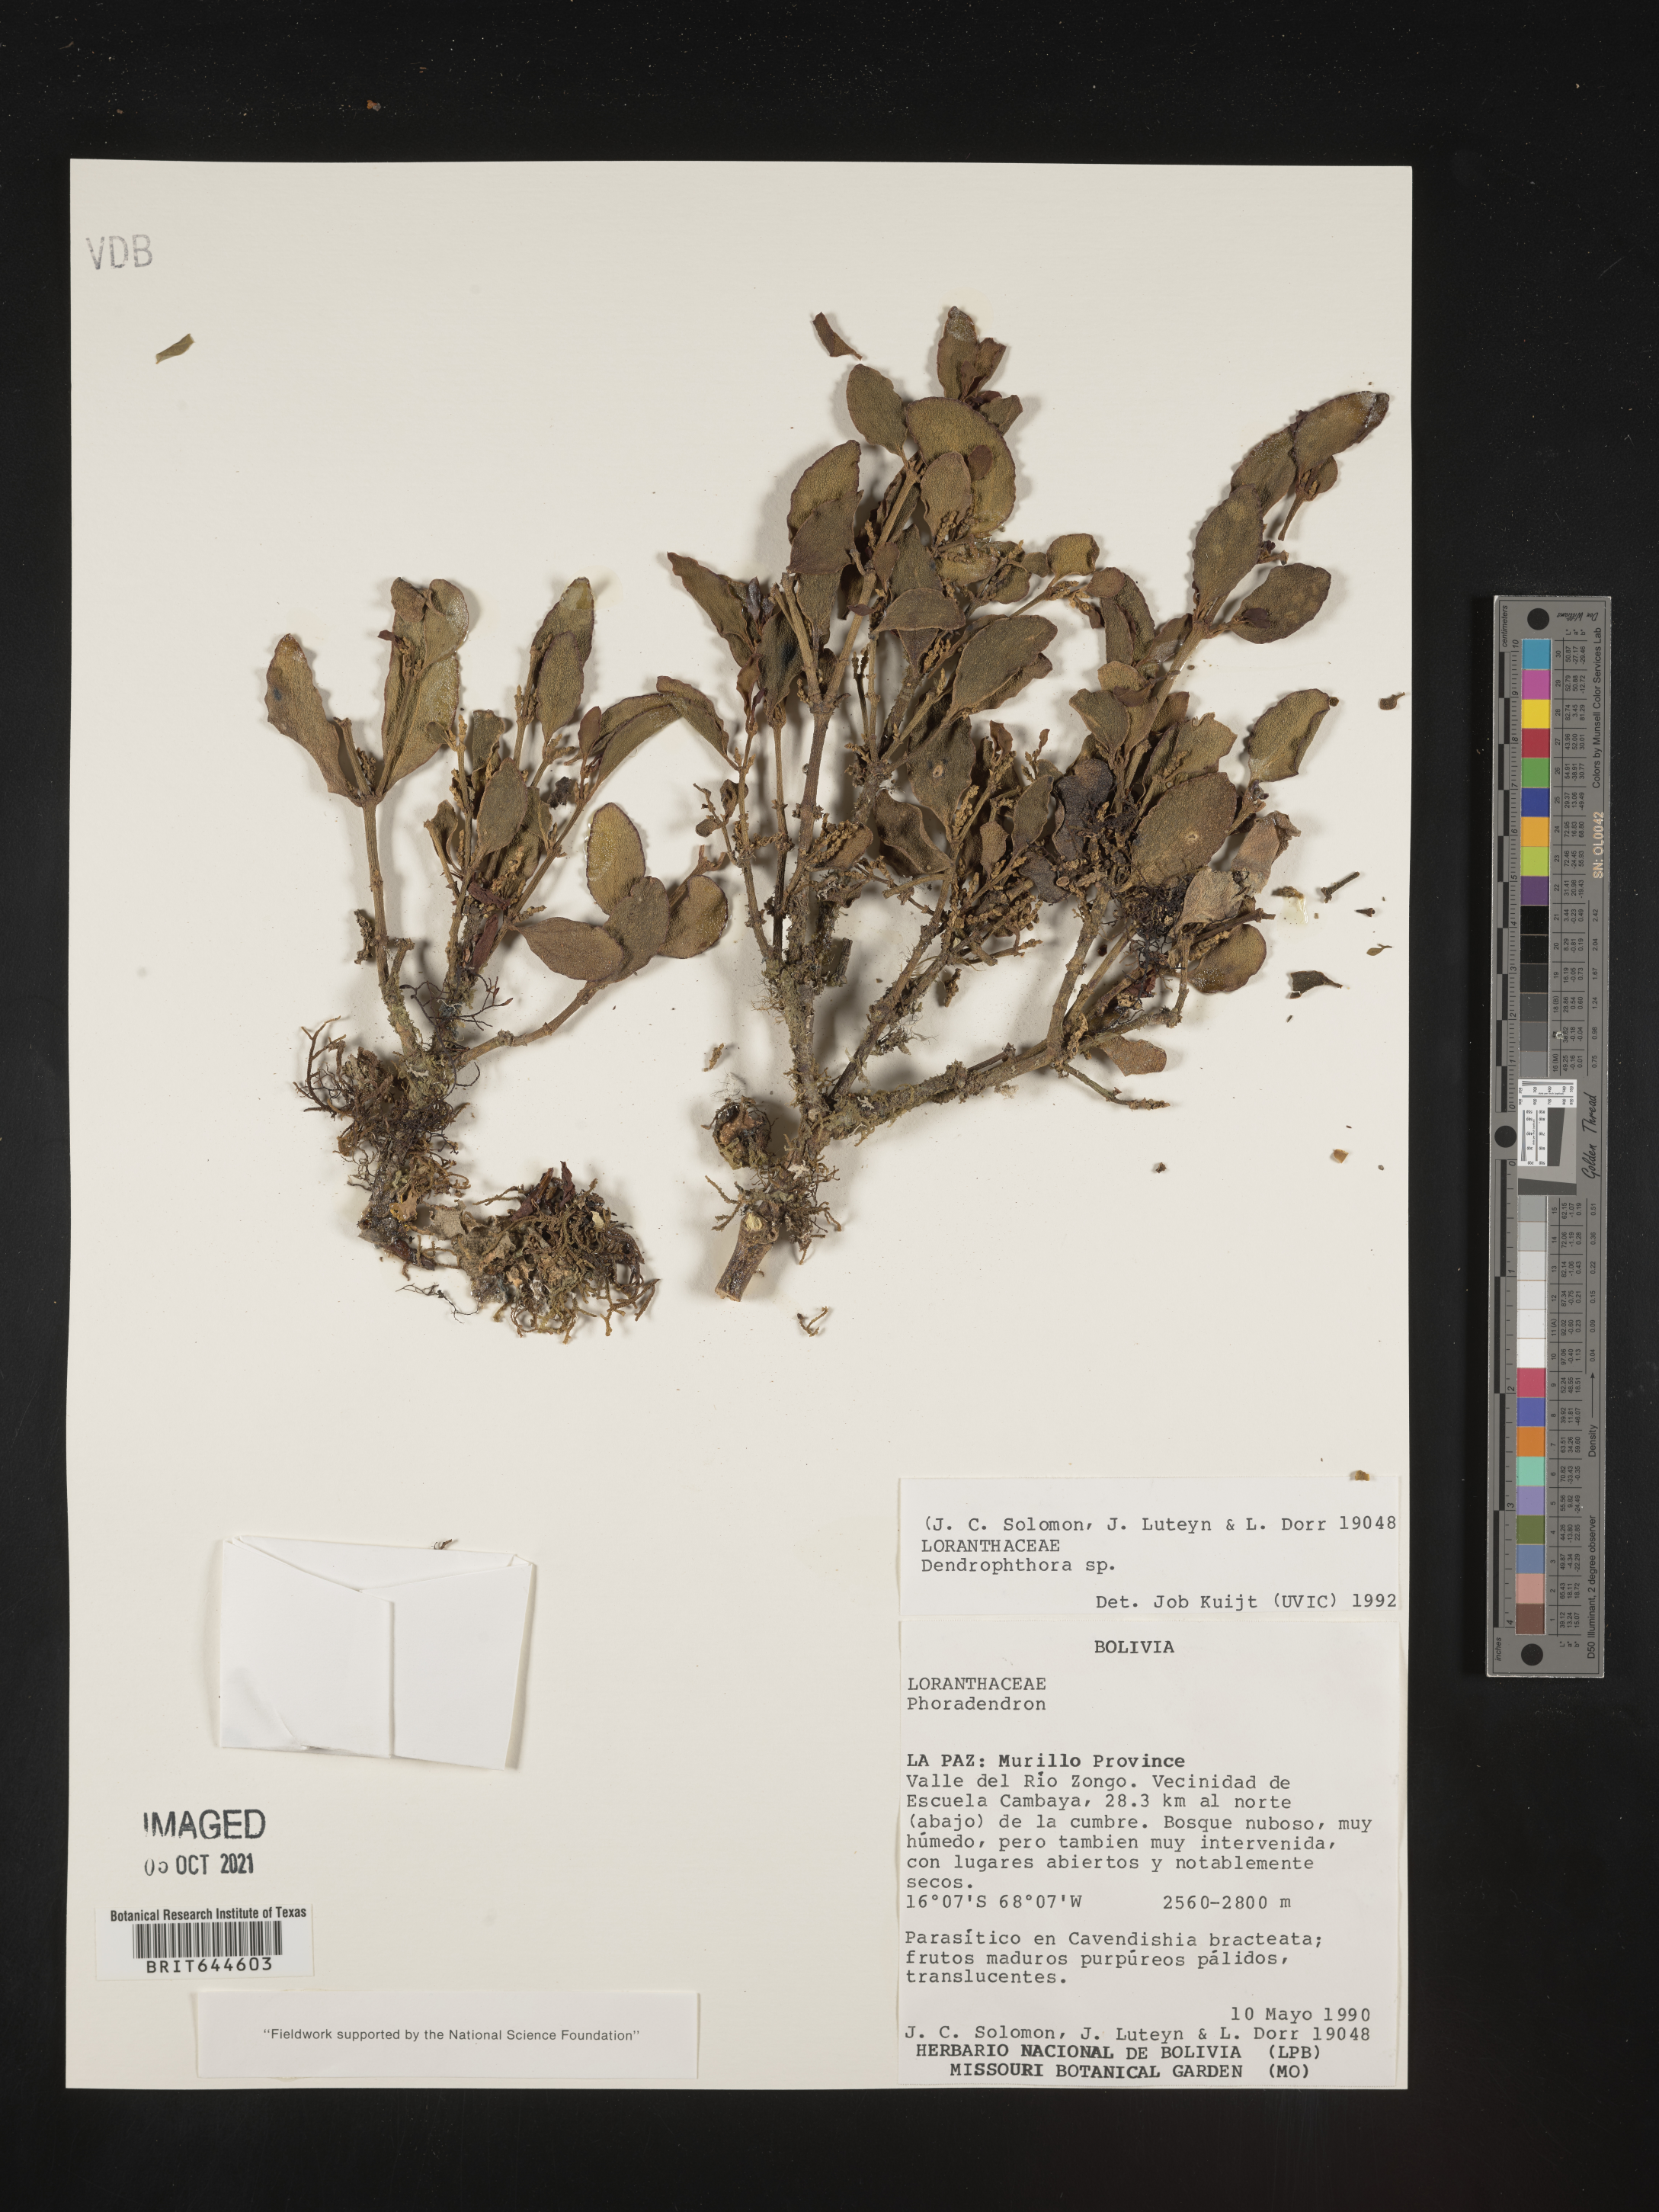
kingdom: Plantae
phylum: Tracheophyta
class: Magnoliopsida
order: Santalales
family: Viscaceae
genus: Dendrophthora
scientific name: Dendrophthora
